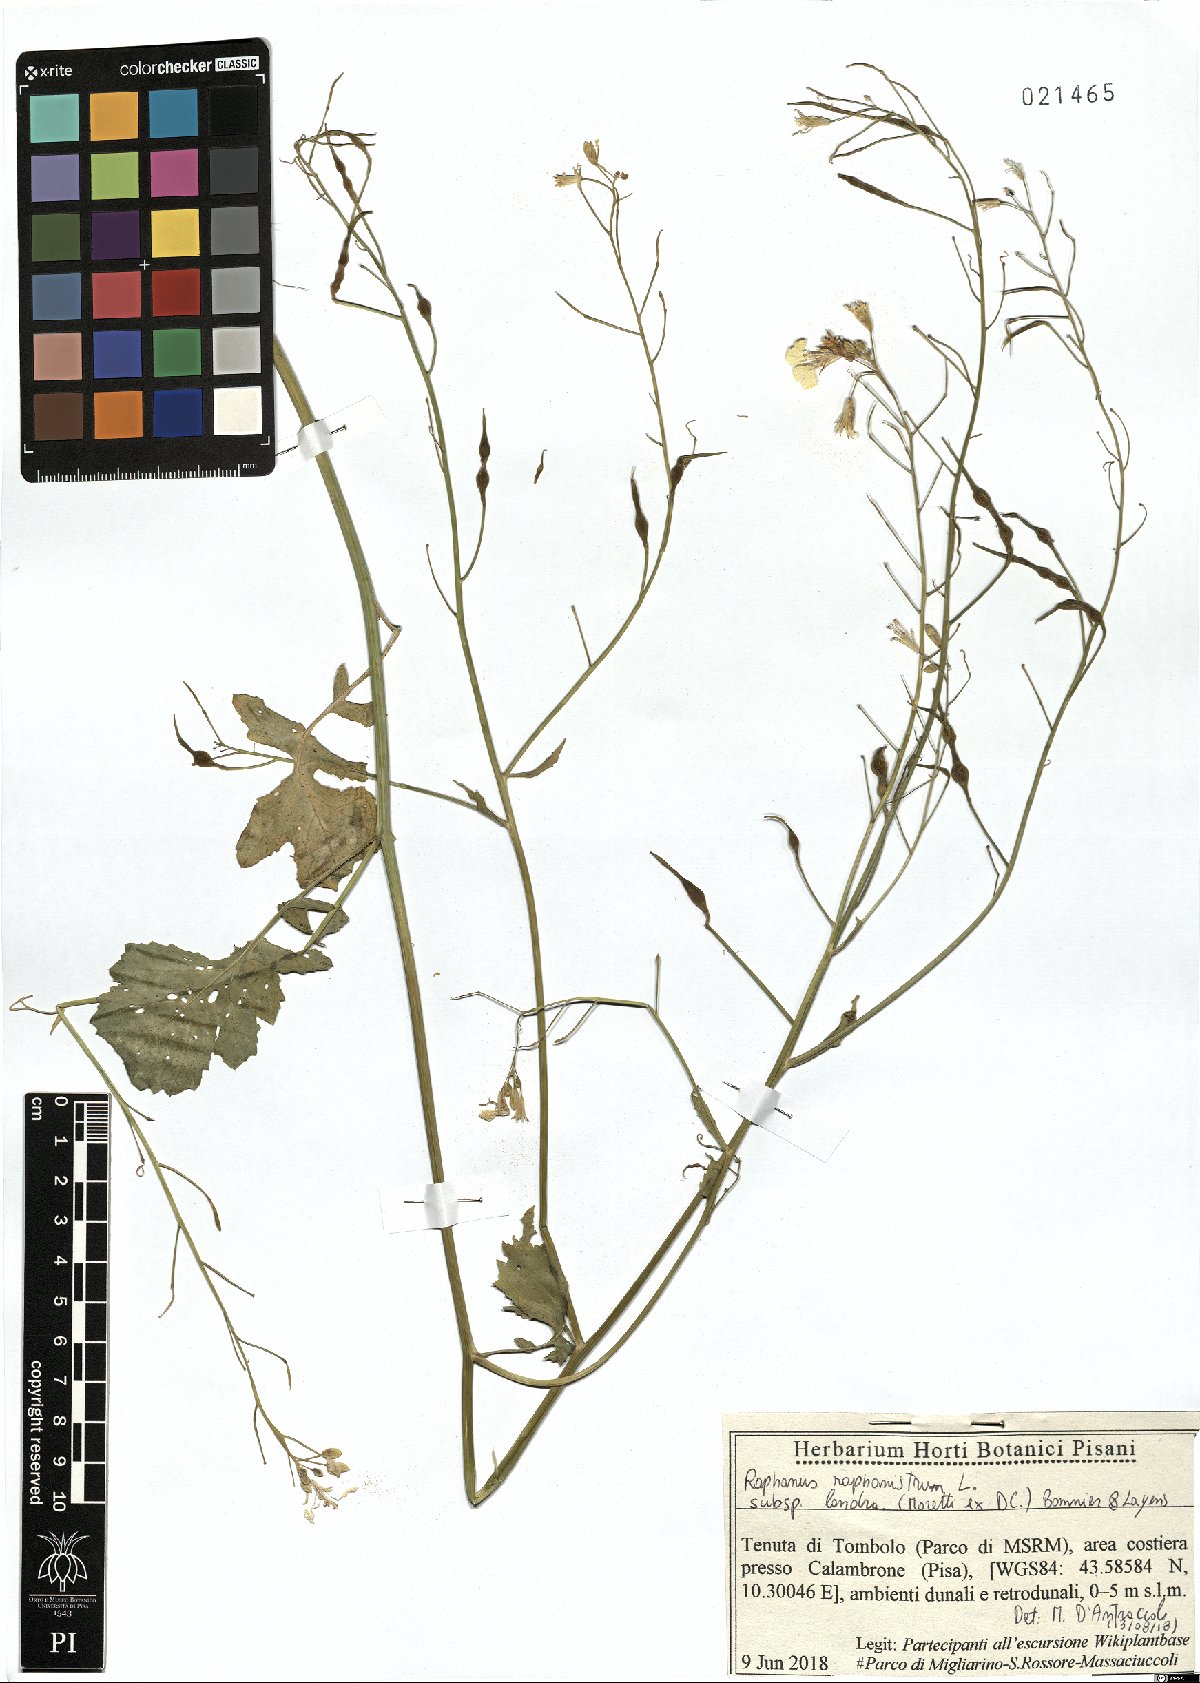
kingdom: Plantae
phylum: Tracheophyta
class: Magnoliopsida
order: Brassicales
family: Brassicaceae
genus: Raphanus
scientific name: Raphanus raphanistrum
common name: Wild radish
